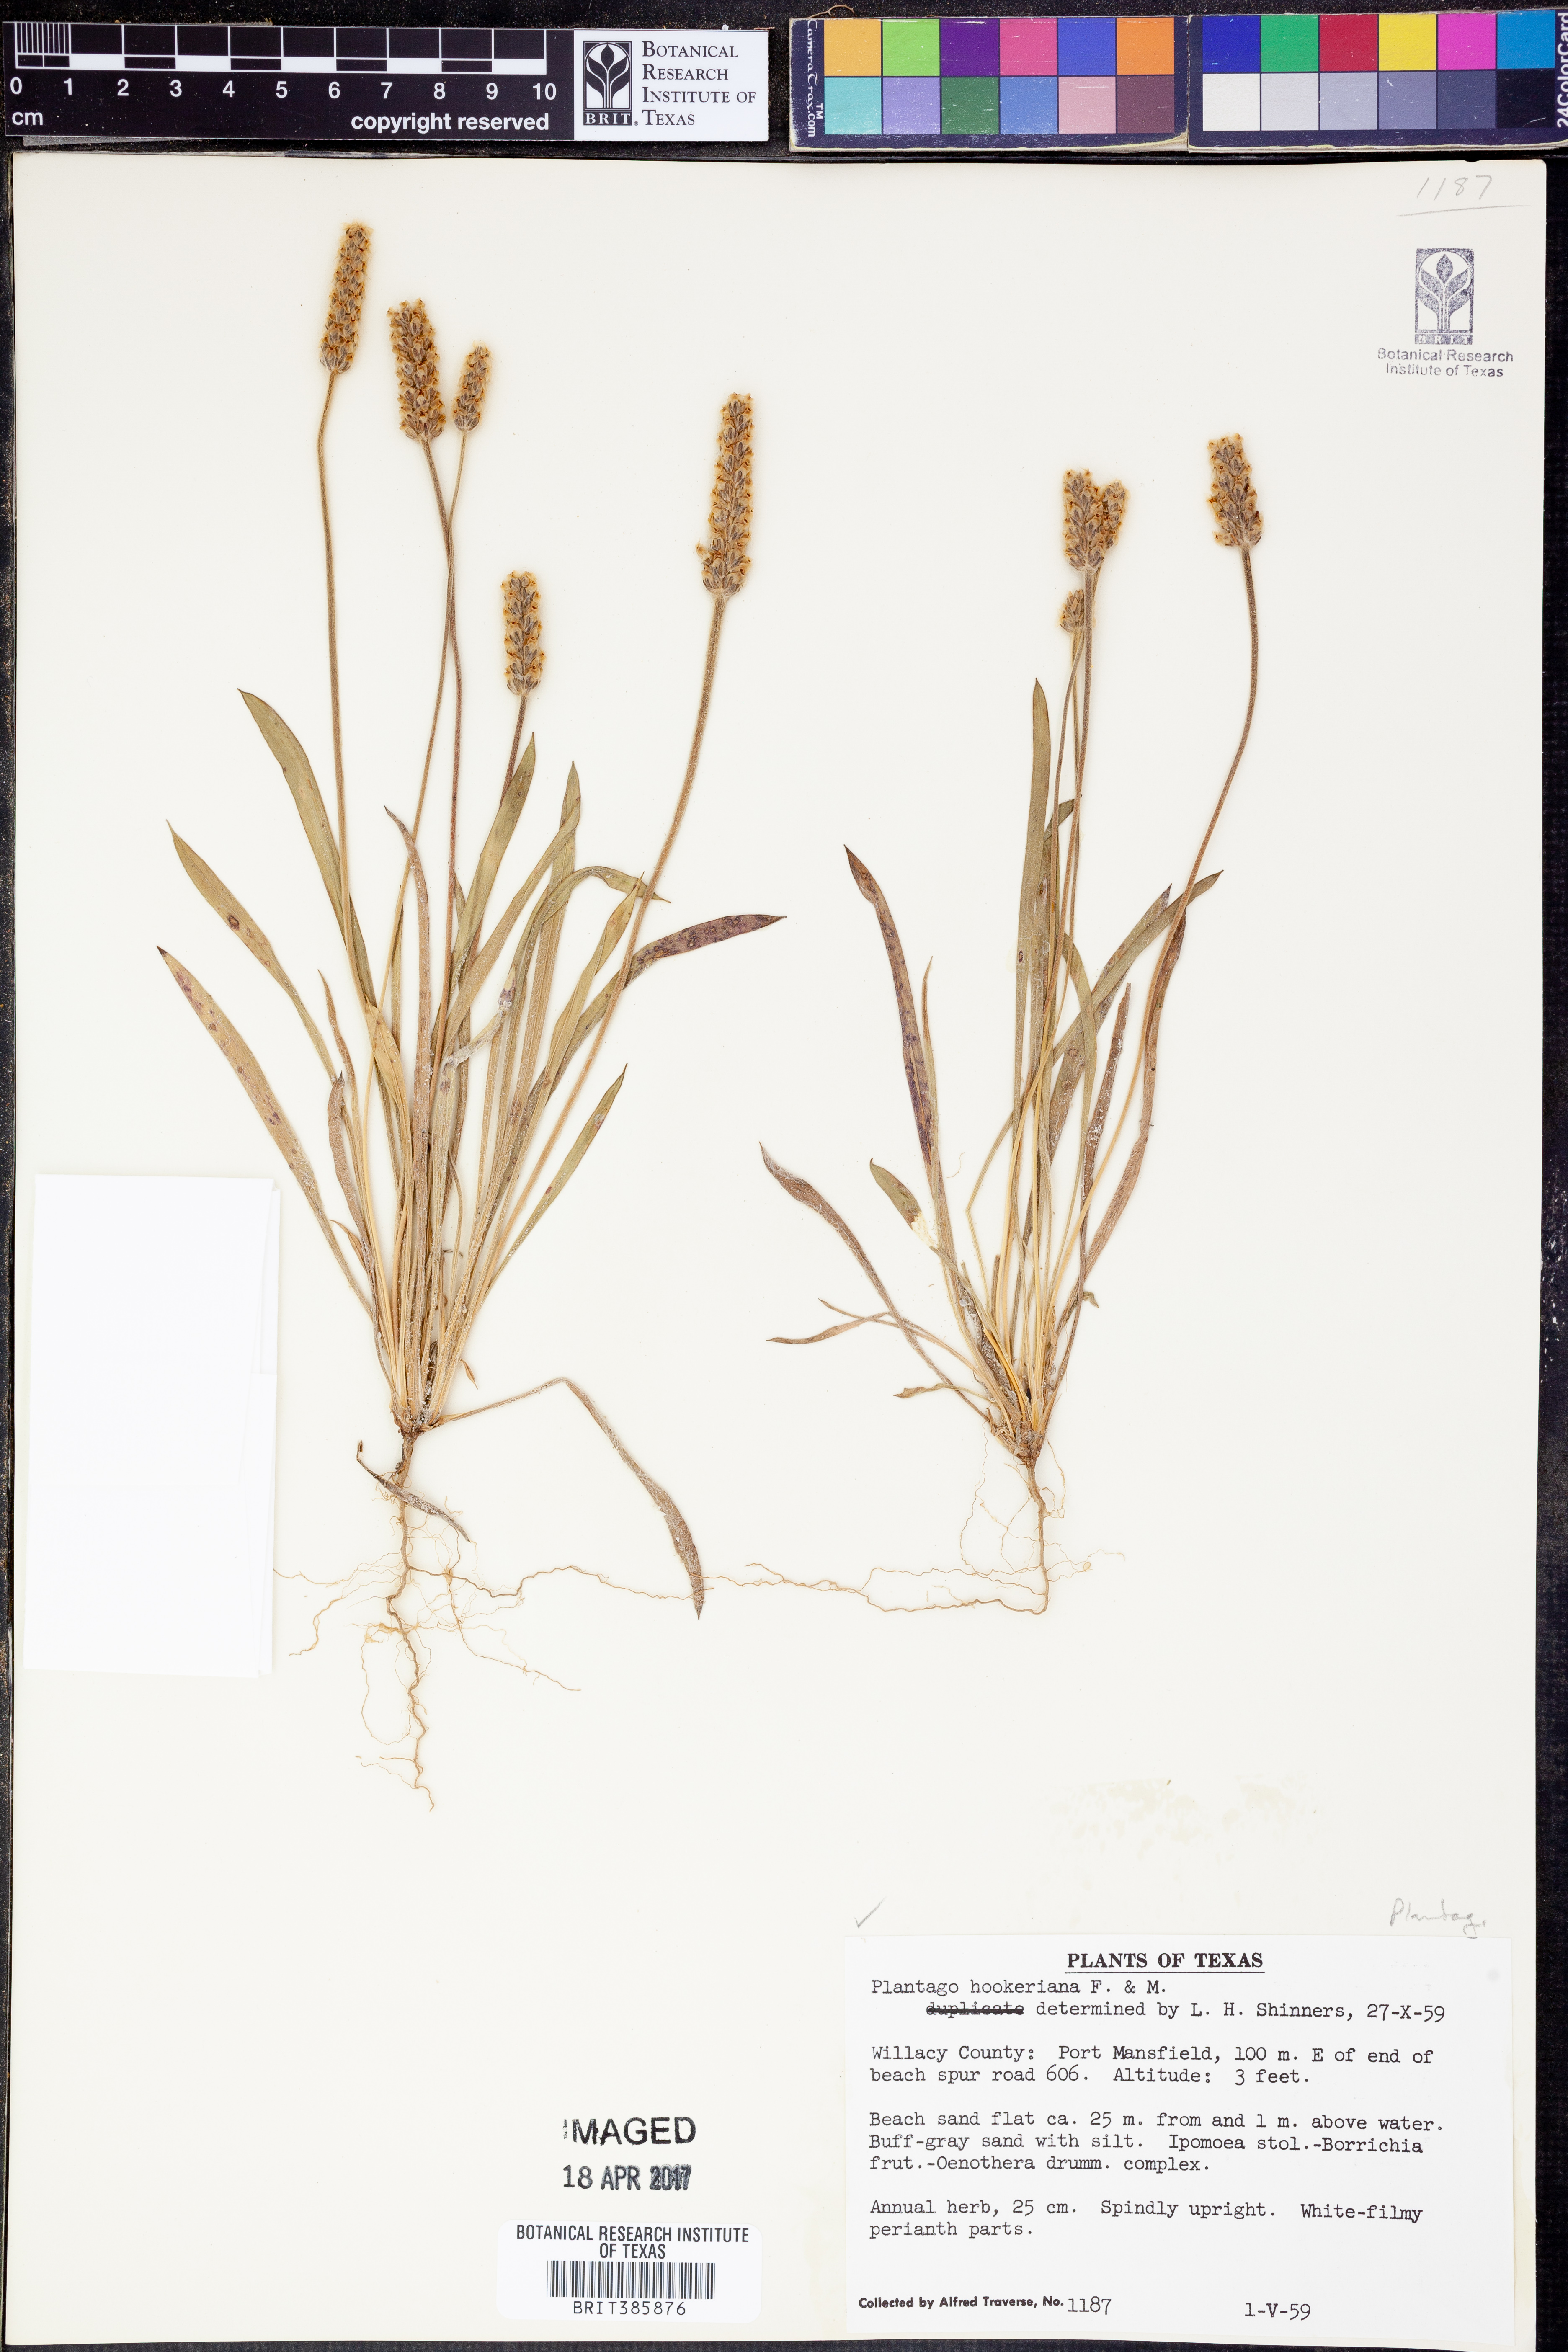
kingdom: Plantae
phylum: Tracheophyta
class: Magnoliopsida
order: Lamiales
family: Plantaginaceae
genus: Plantago
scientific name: Plantago hookeriana
